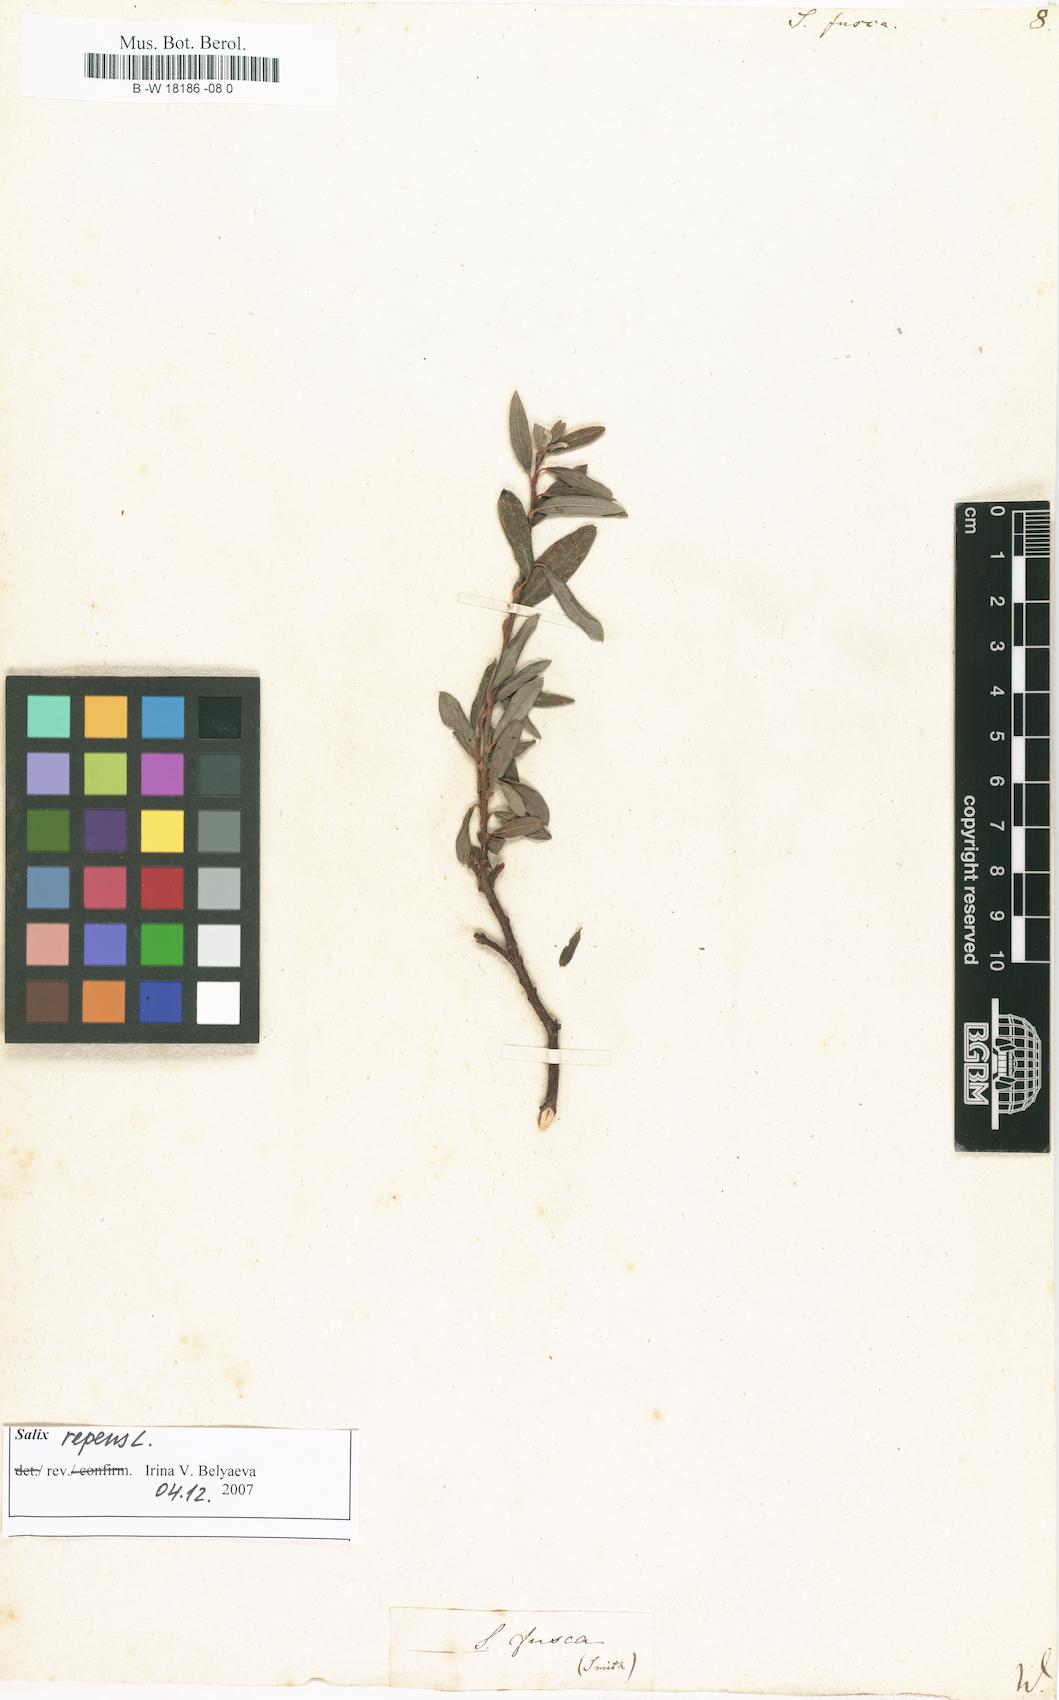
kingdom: Plantae
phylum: Tracheophyta
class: Magnoliopsida
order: Malpighiales
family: Salicaceae
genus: Salix
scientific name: Salix repens
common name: Creeping willow
